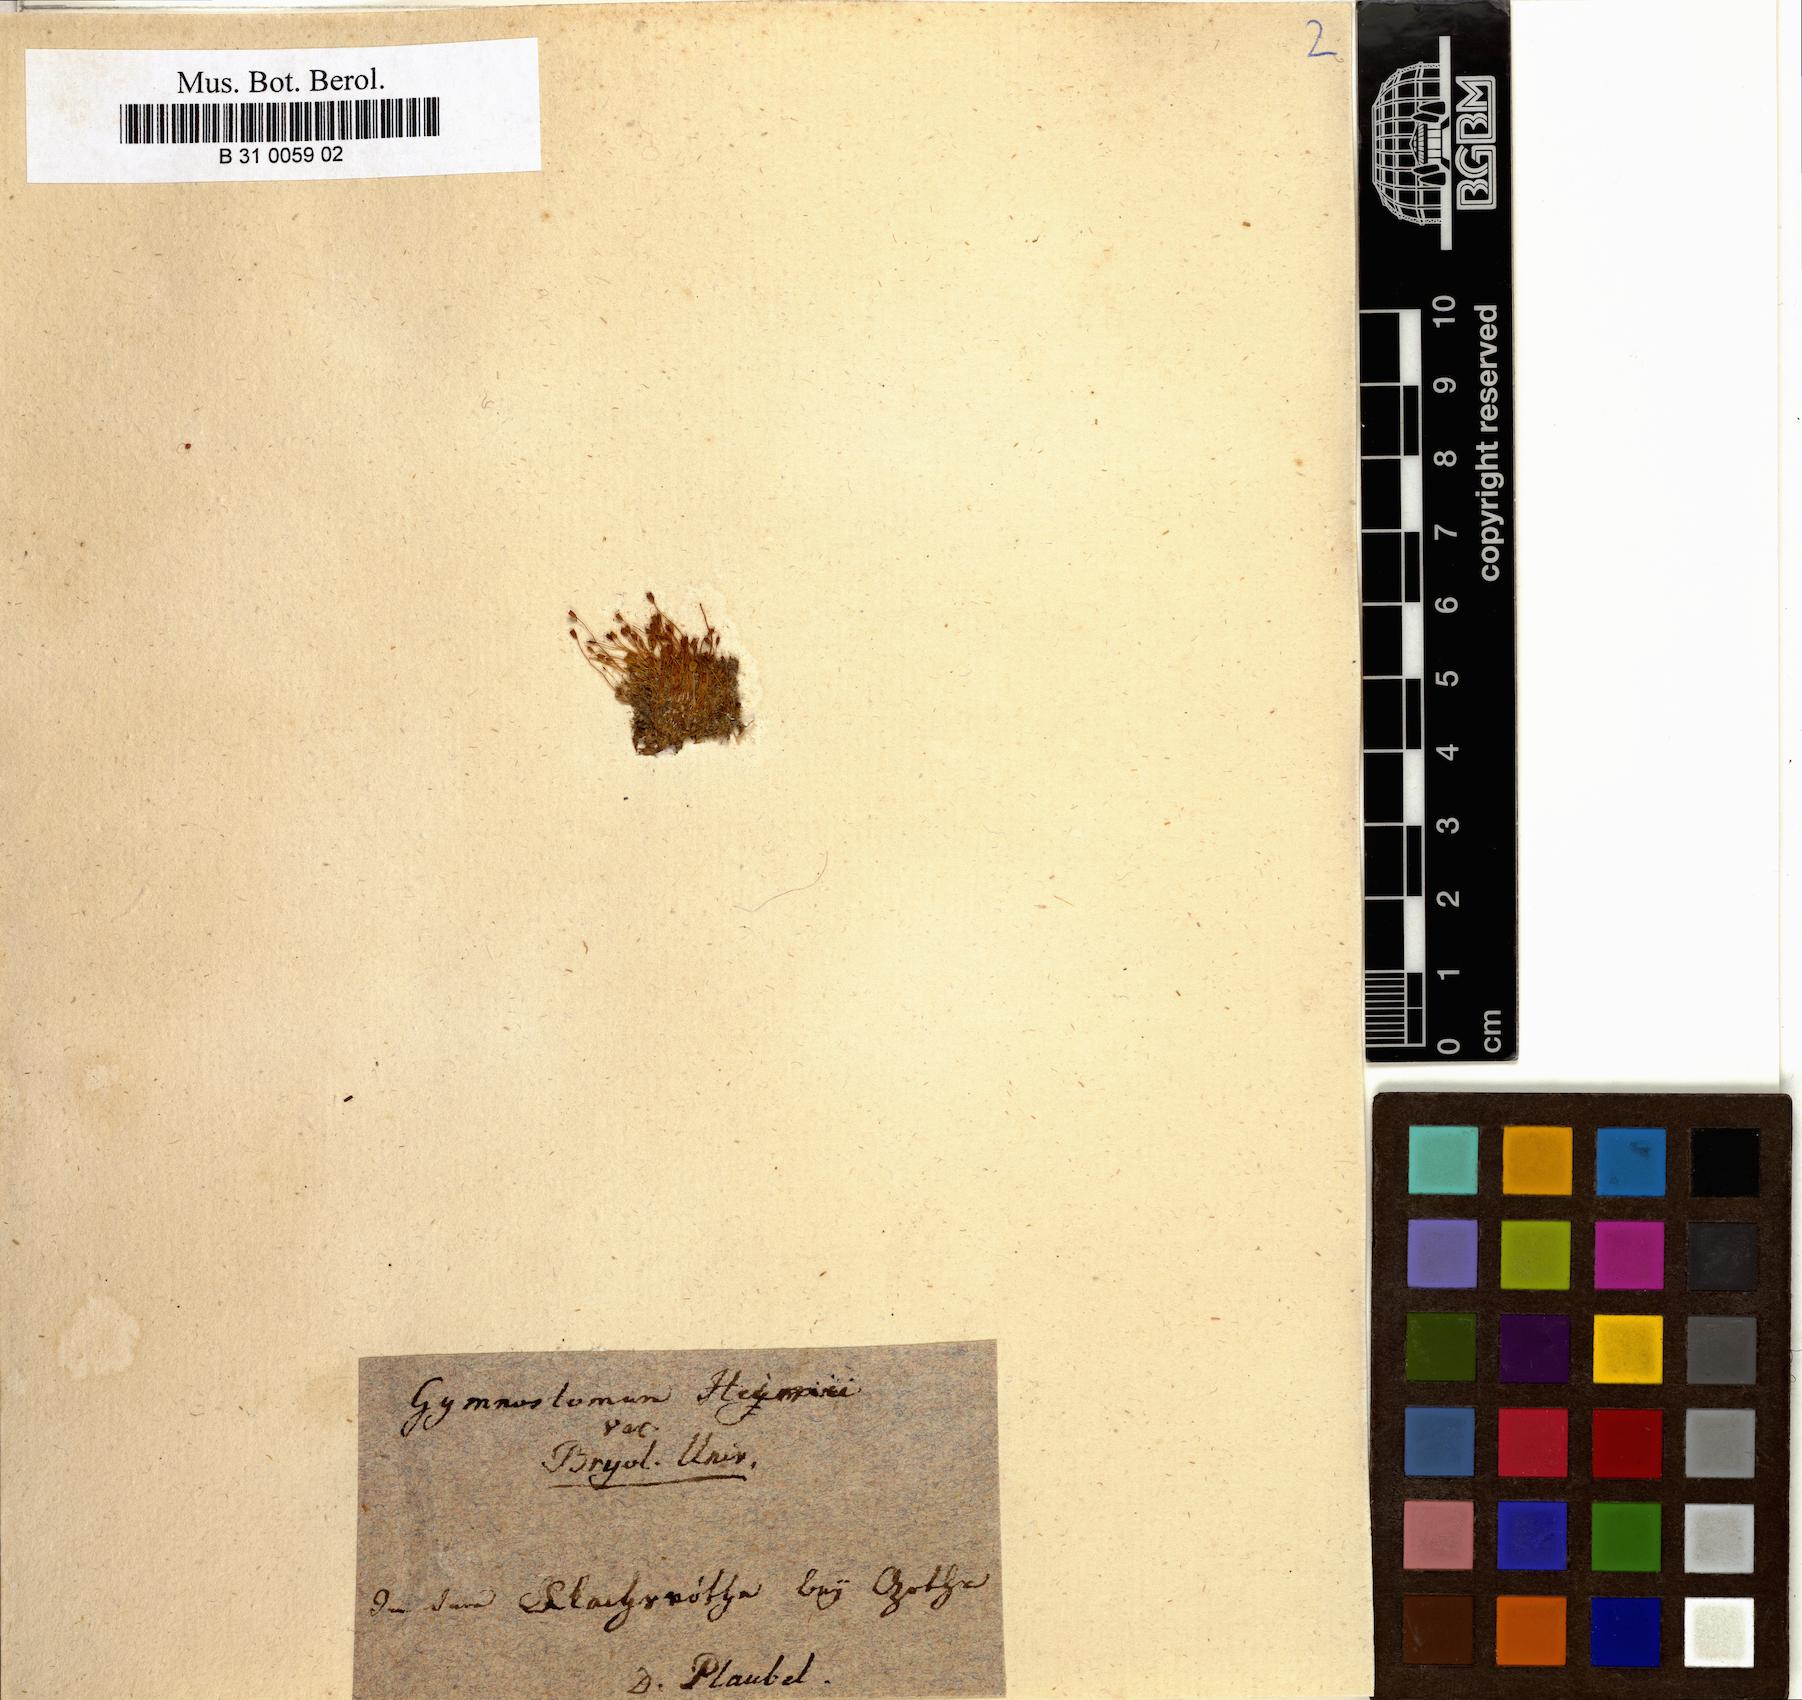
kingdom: Plantae
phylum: Bryophyta
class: Bryopsida
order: Pottiales
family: Pottiaceae
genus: Hennediella
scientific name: Hennediella heimii
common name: Heim's pottia
